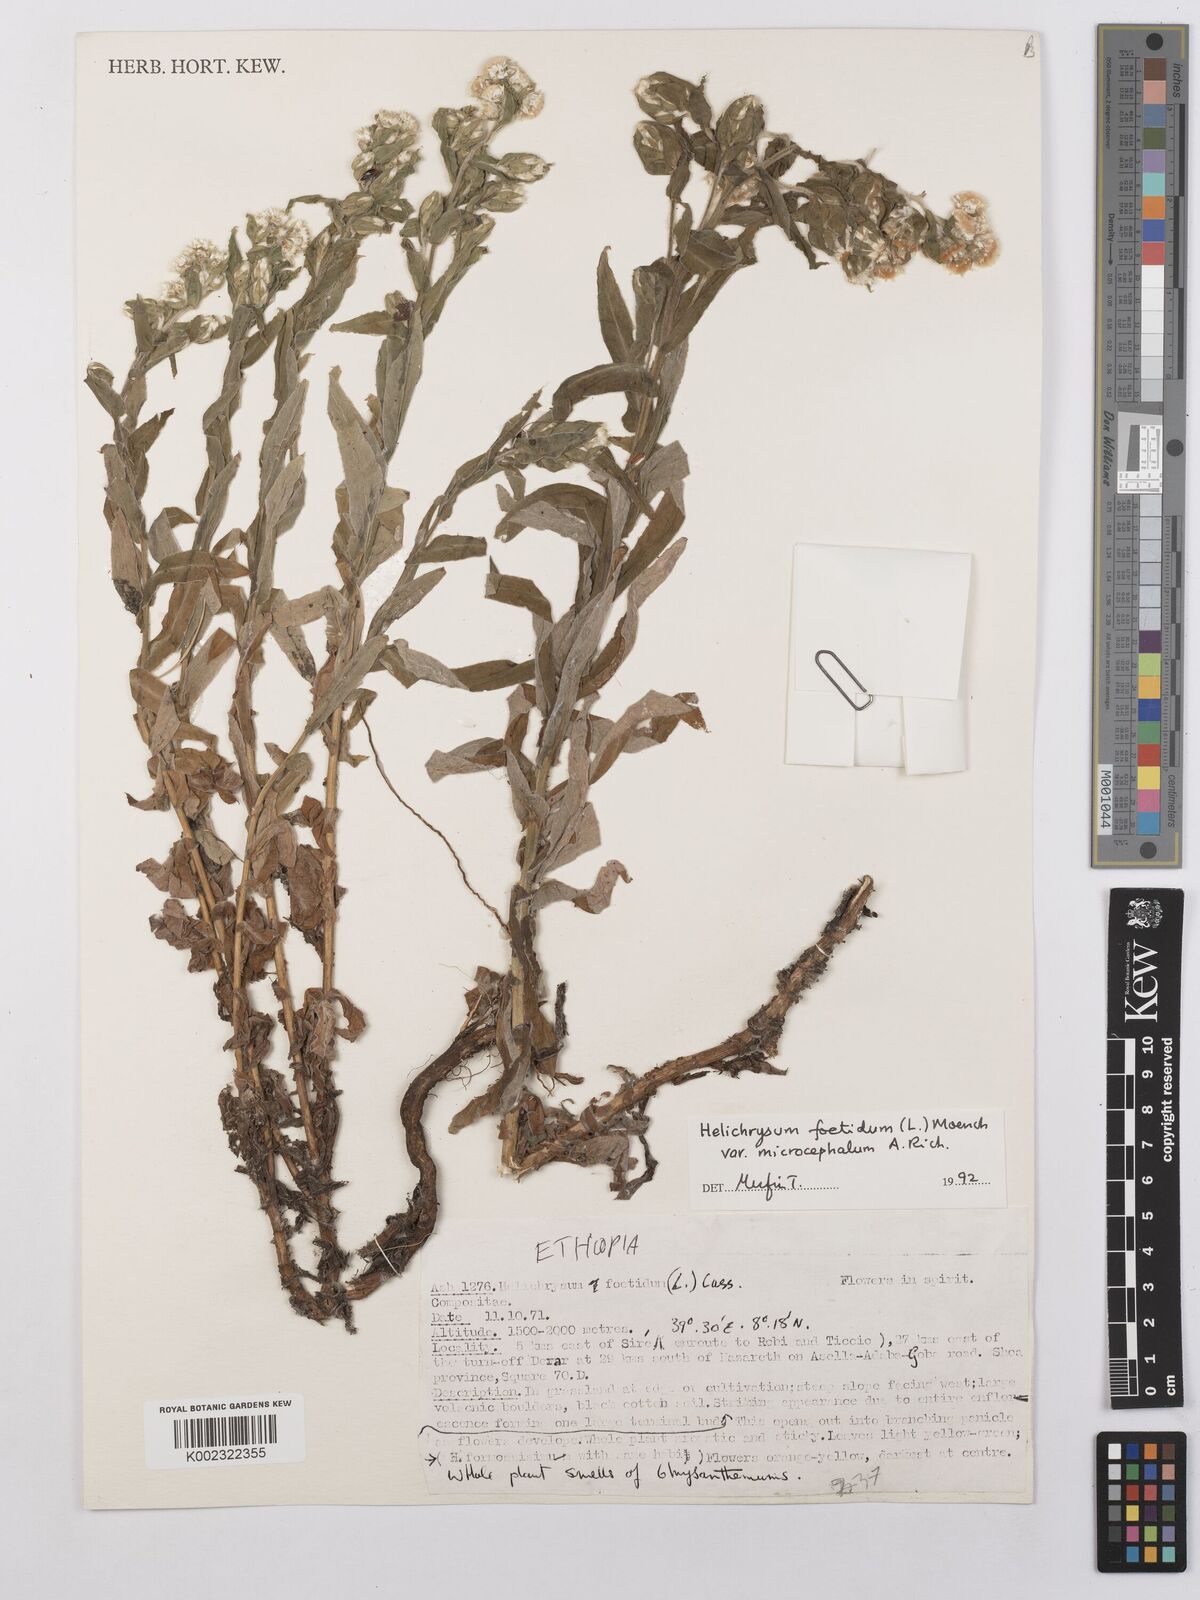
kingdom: Plantae
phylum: Tracheophyta
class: Magnoliopsida
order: Asterales
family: Asteraceae
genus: Helichrysum
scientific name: Helichrysum foetidum
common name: Stinking everlasting
